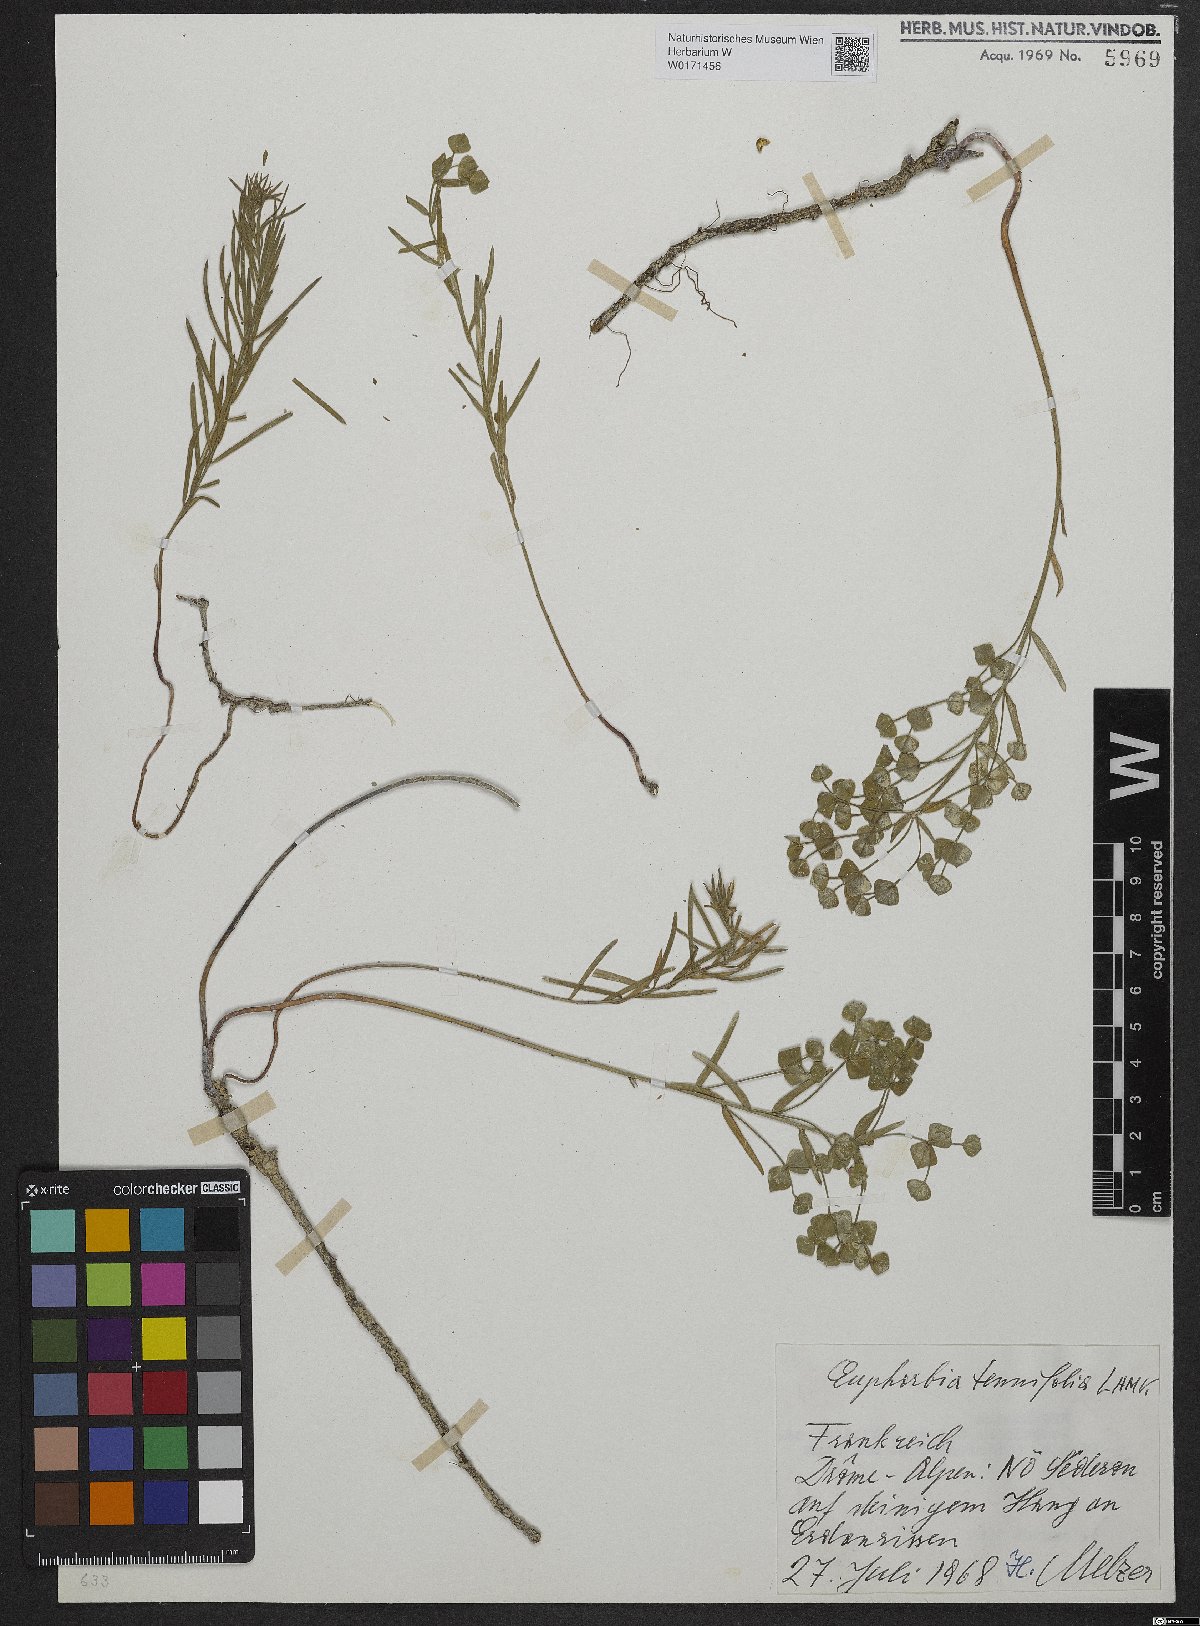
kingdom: Plantae
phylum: Tracheophyta
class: Magnoliopsida
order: Malpighiales
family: Euphorbiaceae
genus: Euphorbia
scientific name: Euphorbia graminifolia
